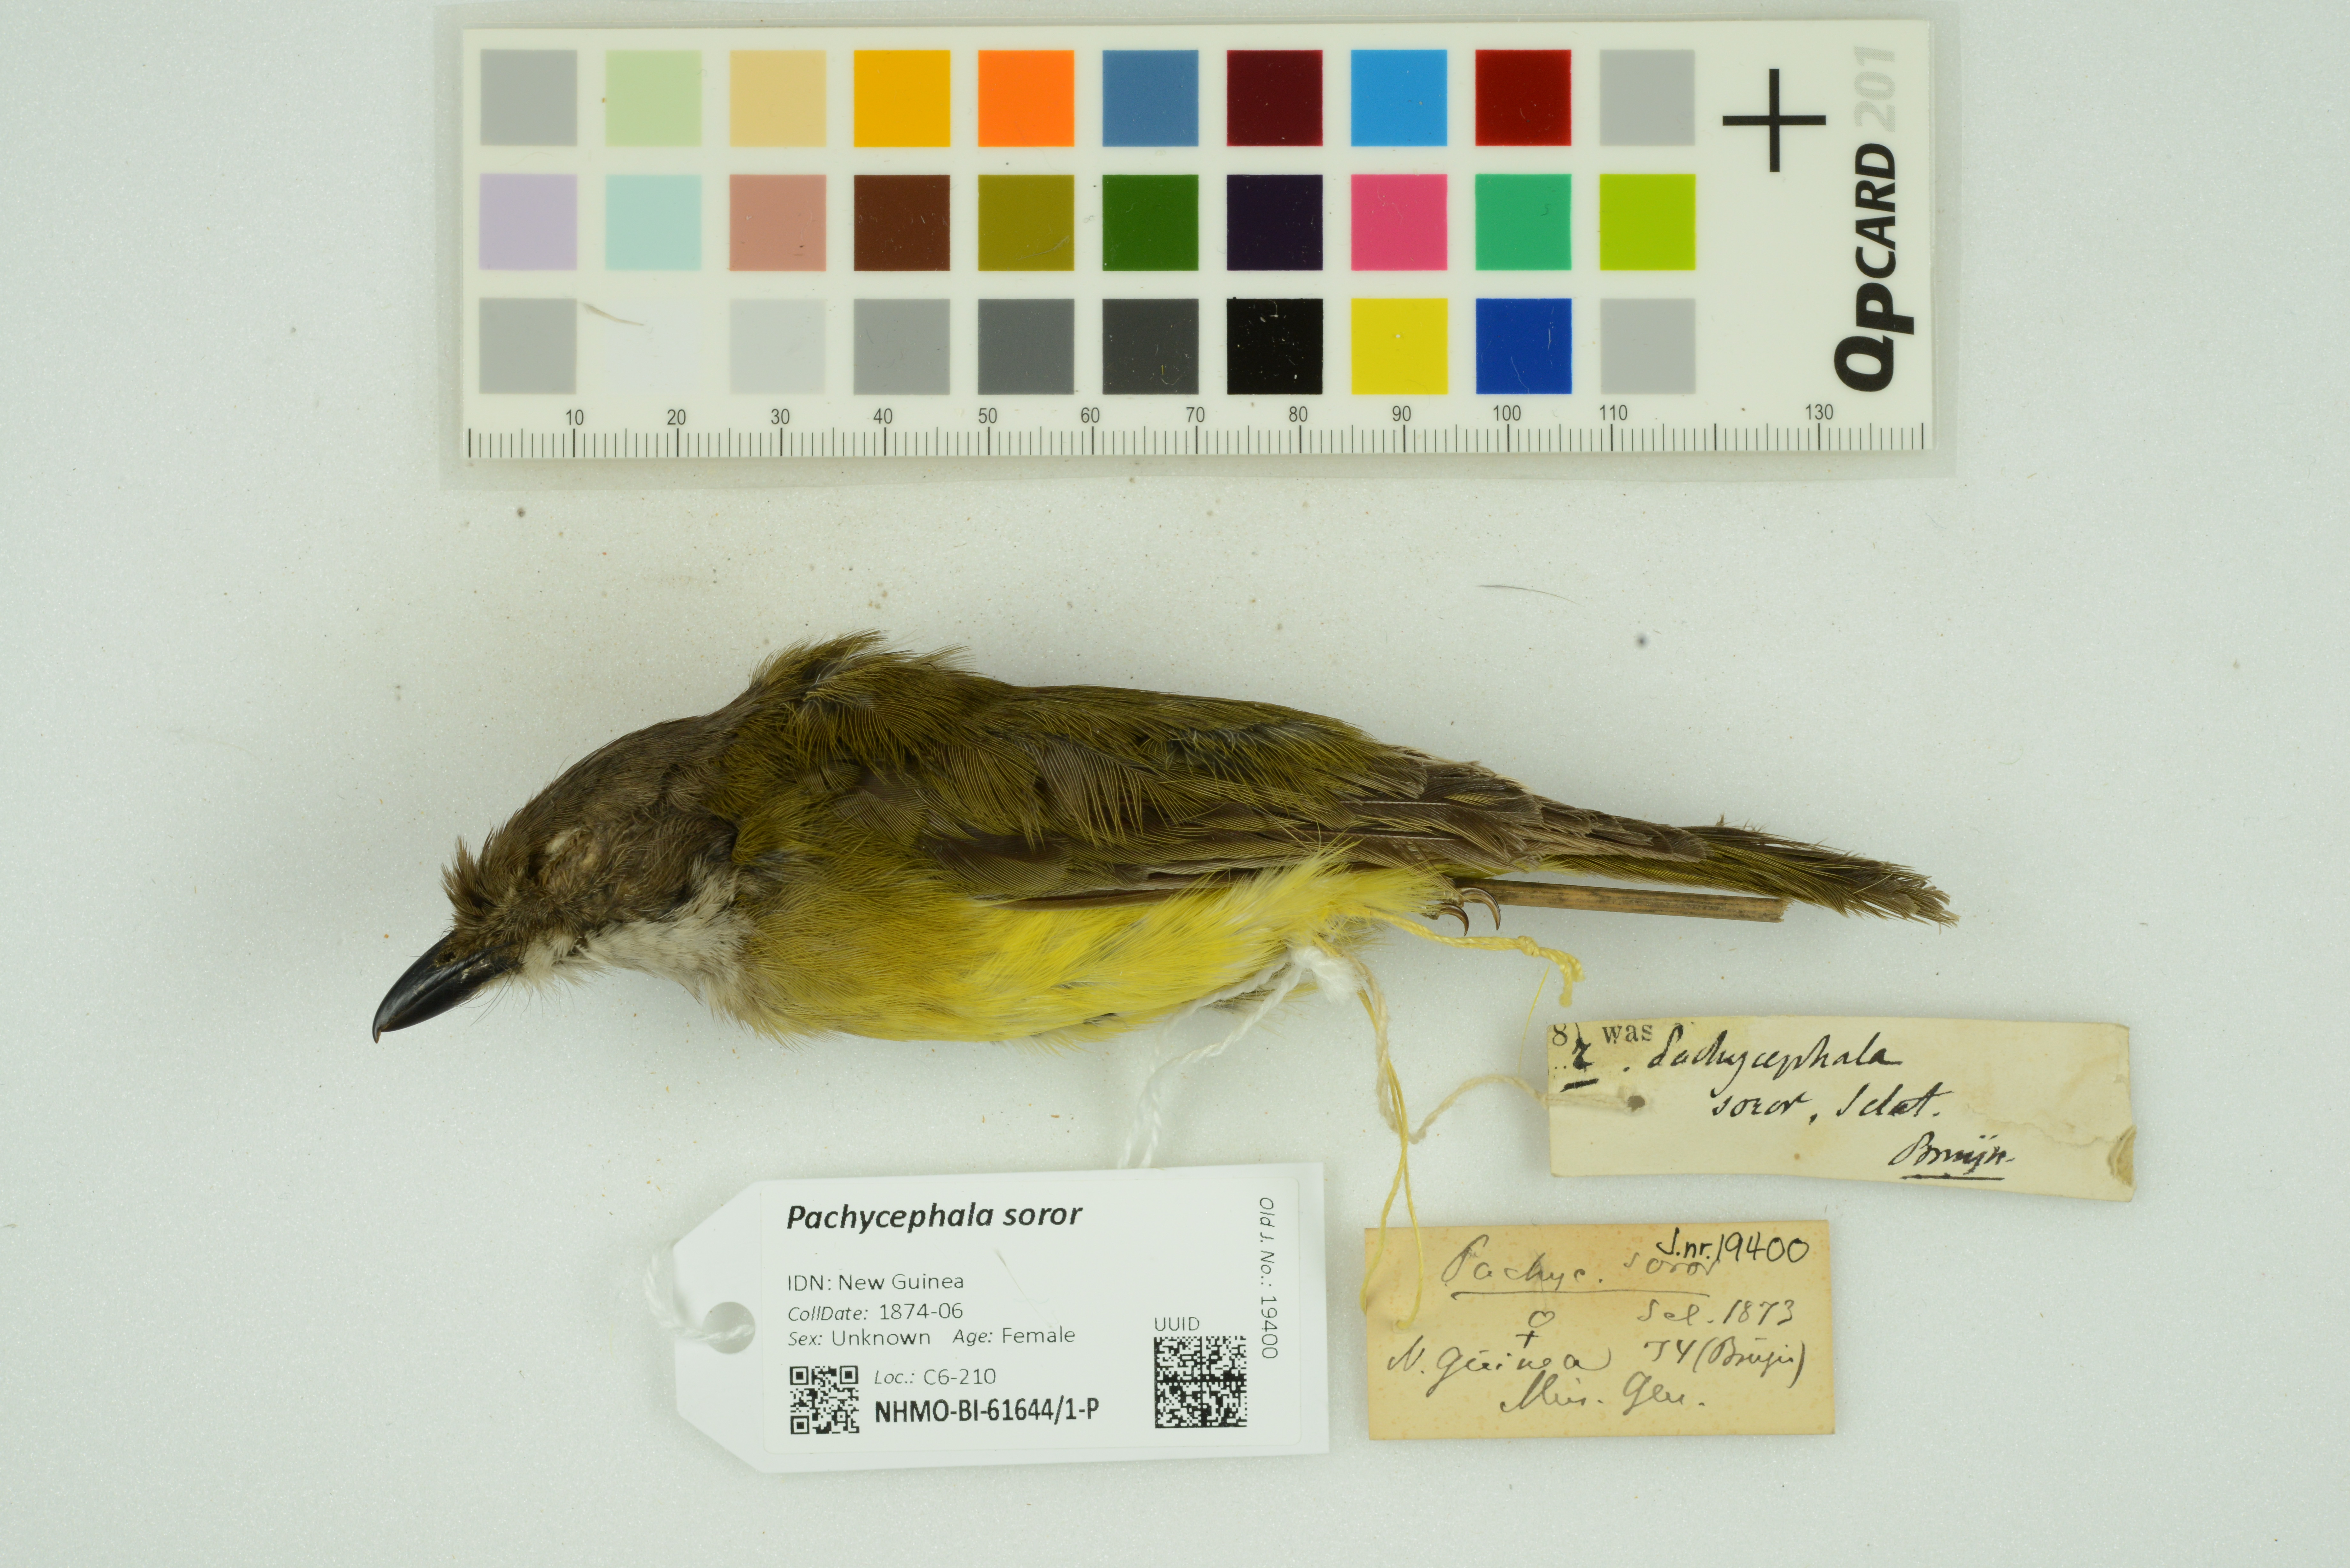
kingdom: Animalia
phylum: Chordata
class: Aves
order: Passeriformes
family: Pachycephalidae
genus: Pachycephala
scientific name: Pachycephala soror
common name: Sclater's whistler
